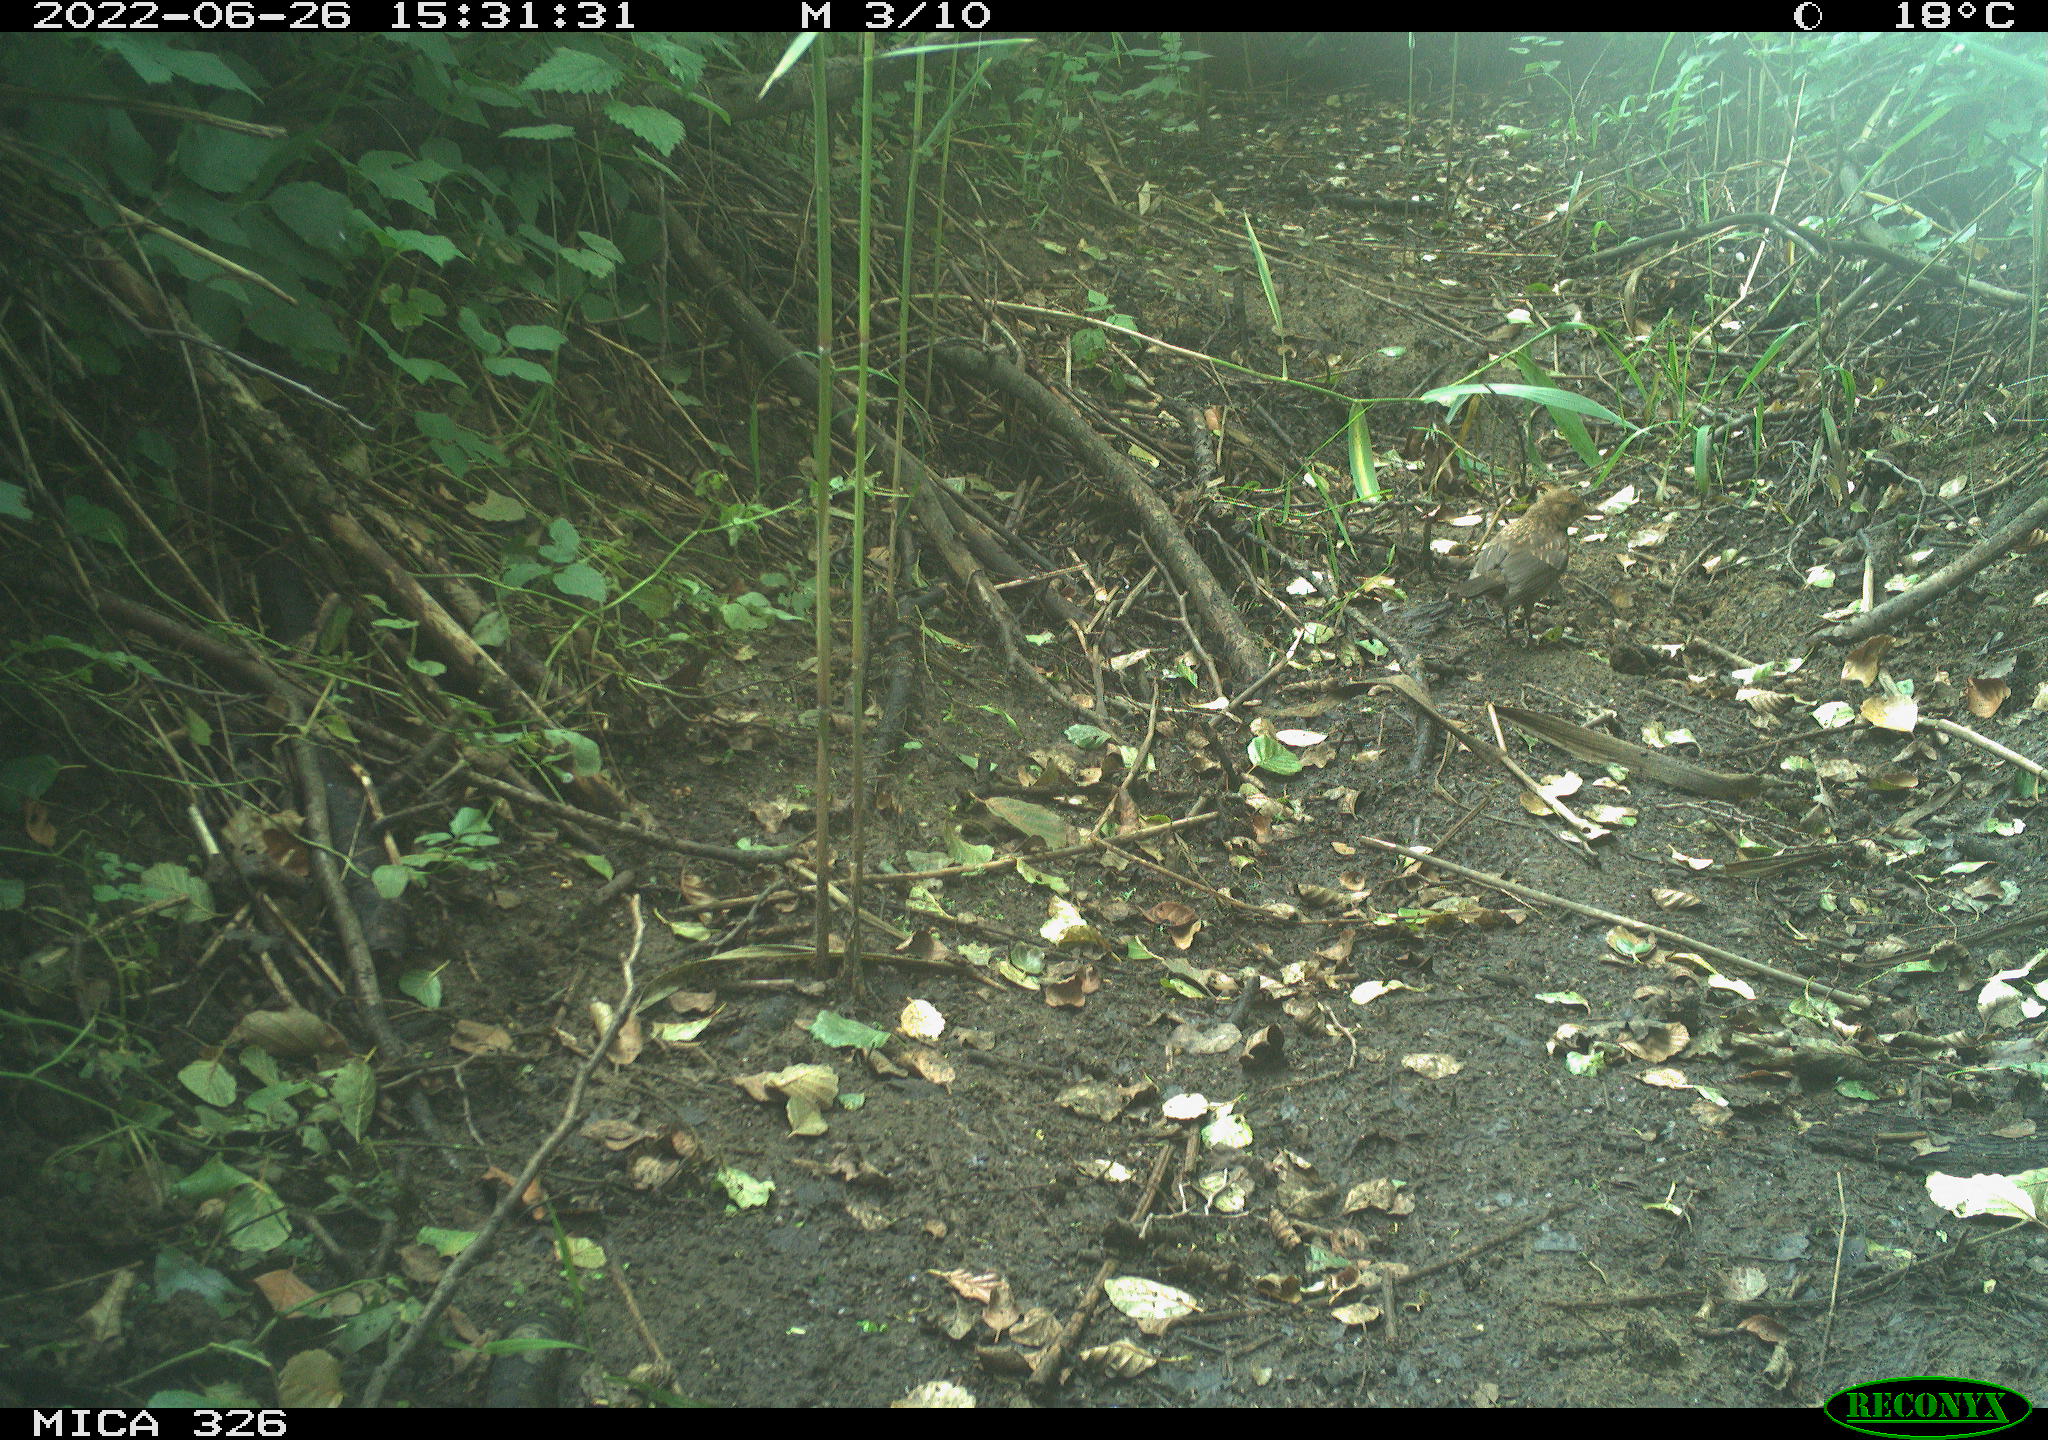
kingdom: Animalia
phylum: Chordata
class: Aves
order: Passeriformes
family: Turdidae
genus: Turdus
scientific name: Turdus
